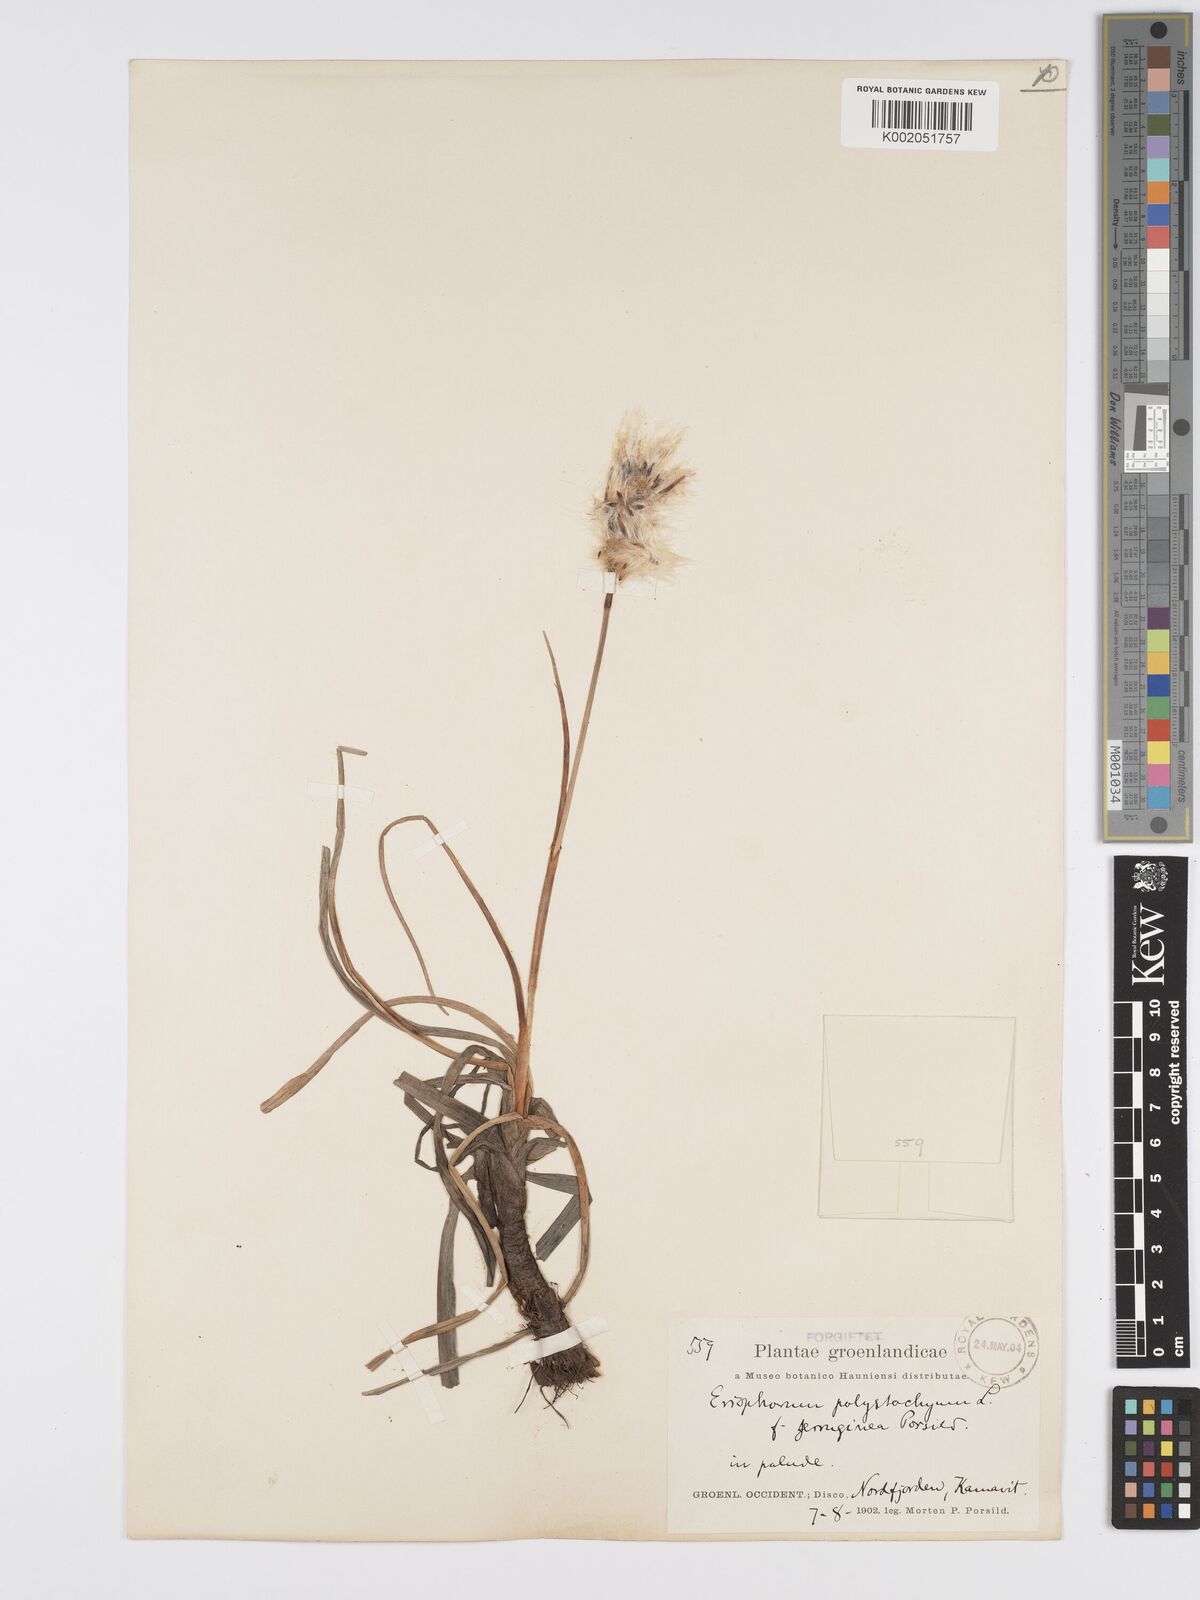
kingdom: Plantae
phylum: Tracheophyta
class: Liliopsida
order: Poales
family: Cyperaceae
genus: Eriophorum
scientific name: Eriophorum angustifolium
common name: Common cottongrass
